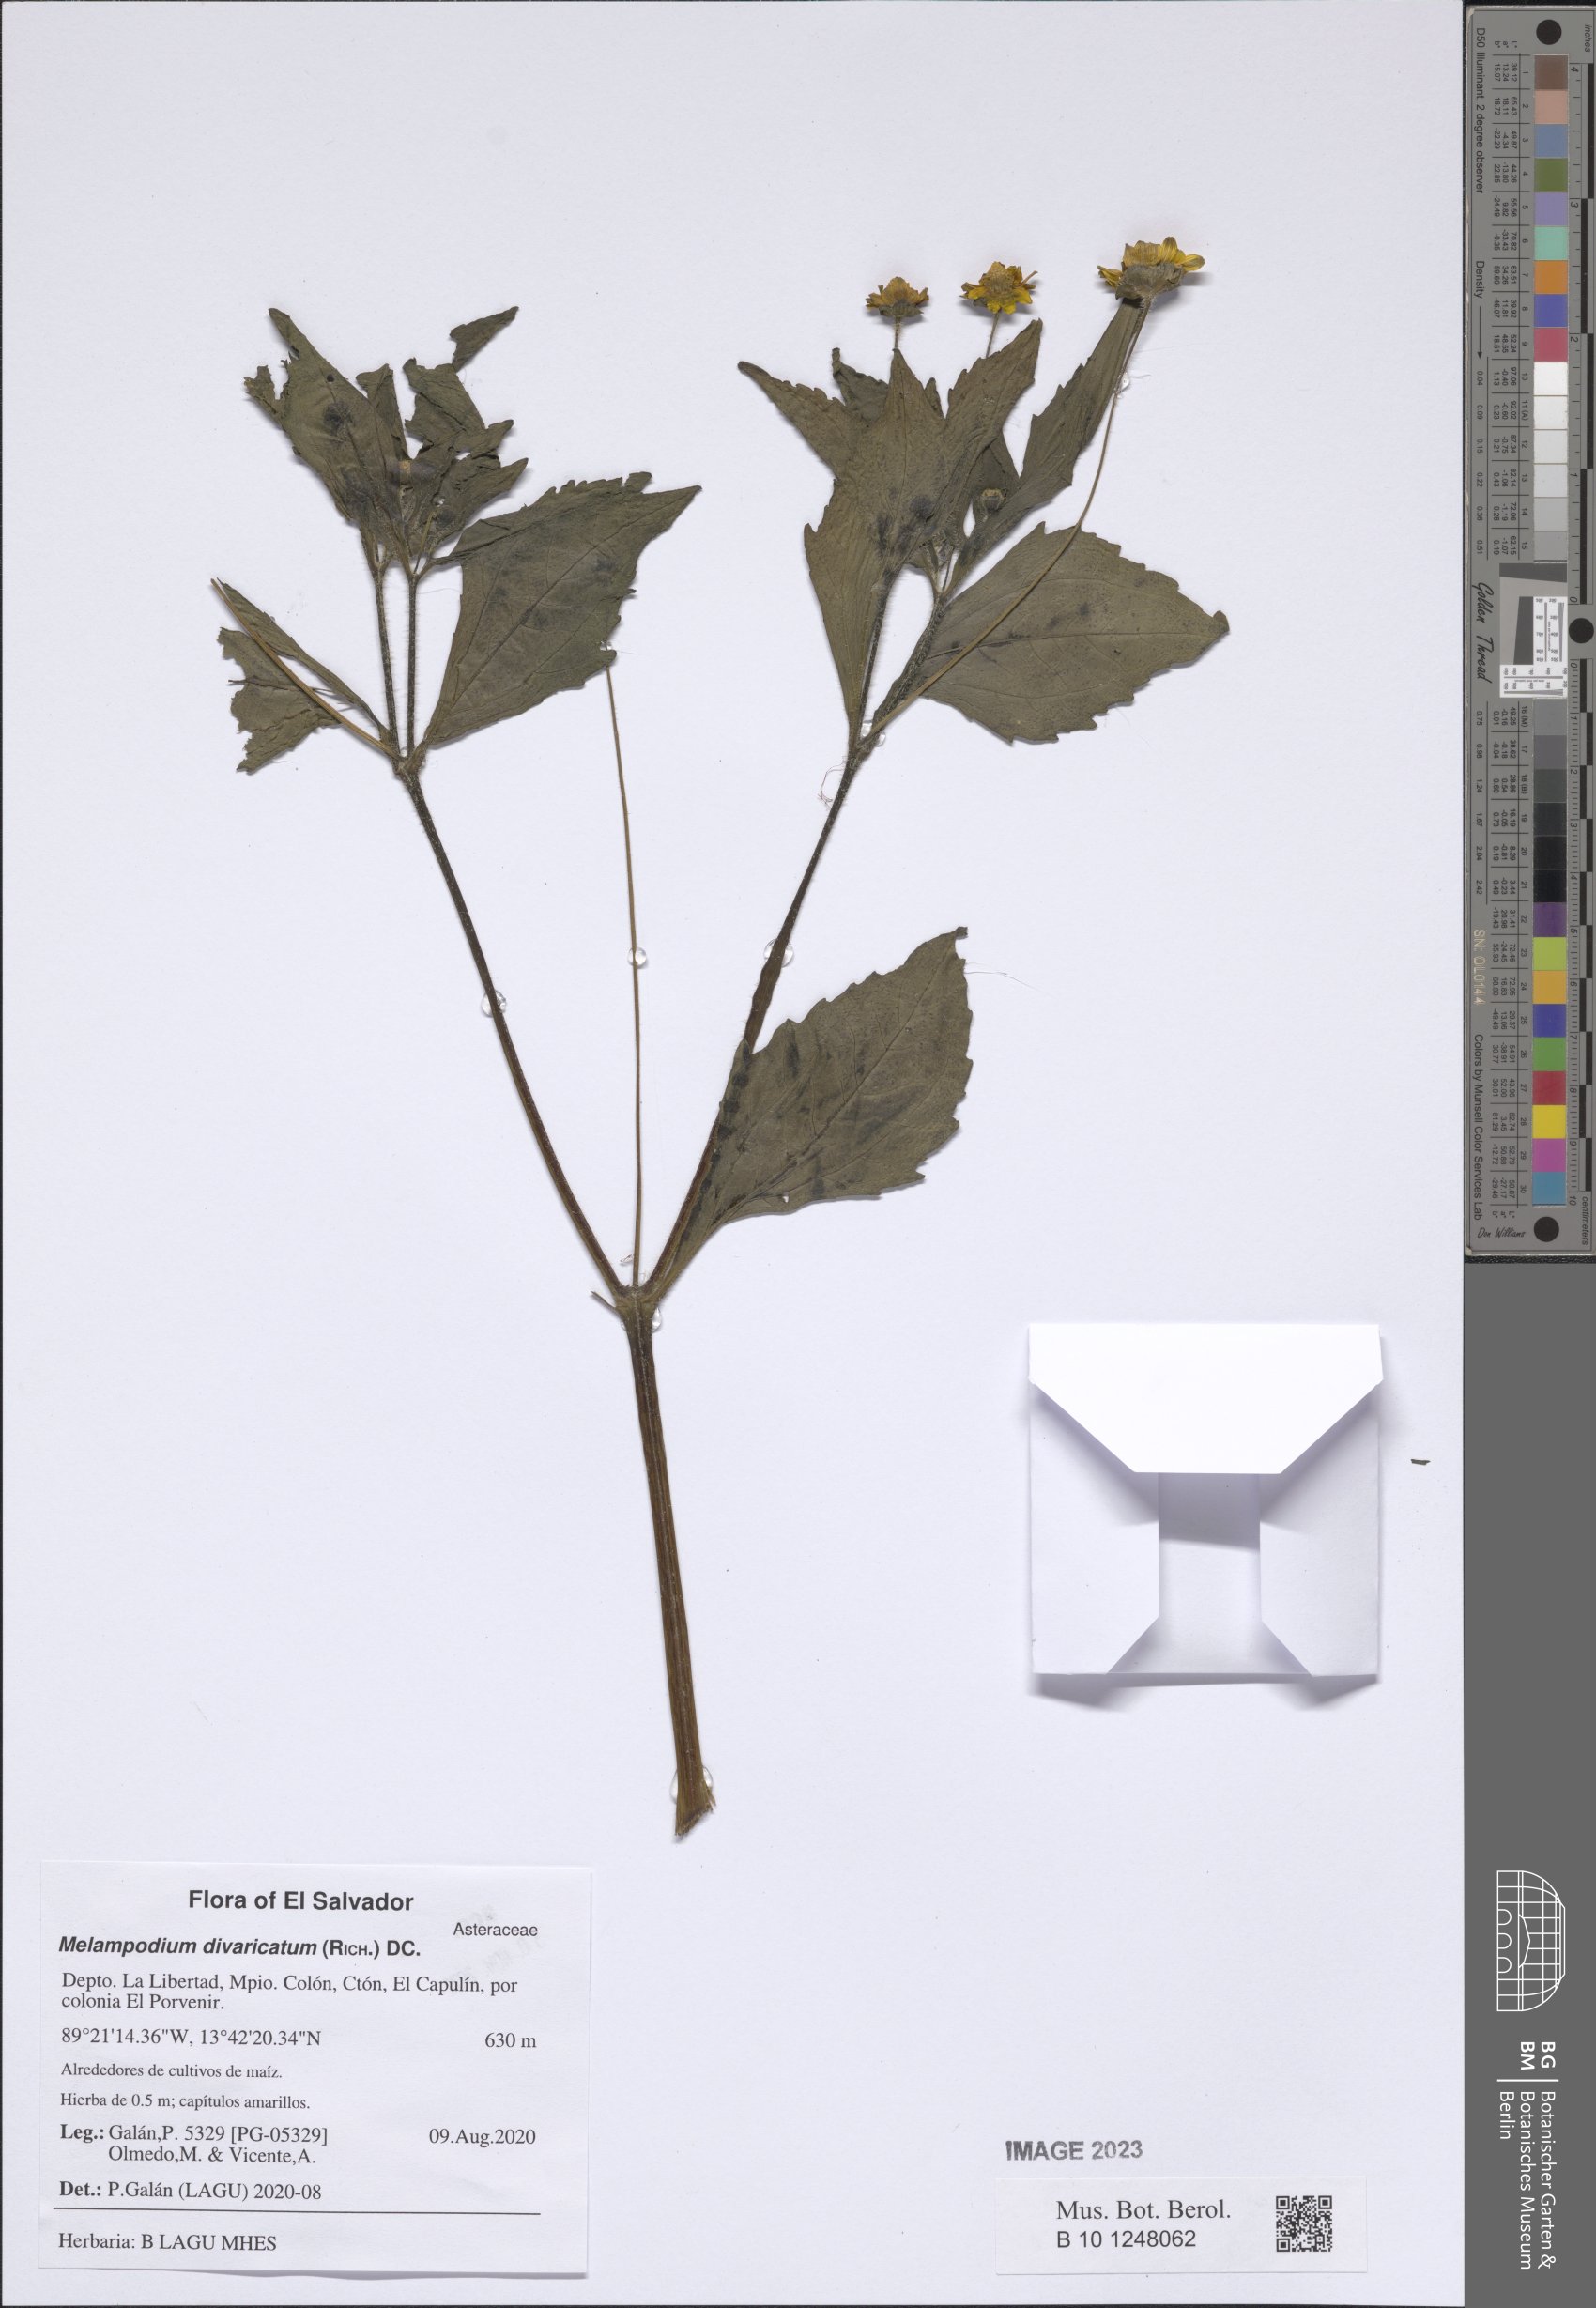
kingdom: Plantae
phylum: Tracheophyta
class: Magnoliopsida
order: Asterales
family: Asteraceae
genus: Melampodium
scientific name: Melampodium divaricatum
